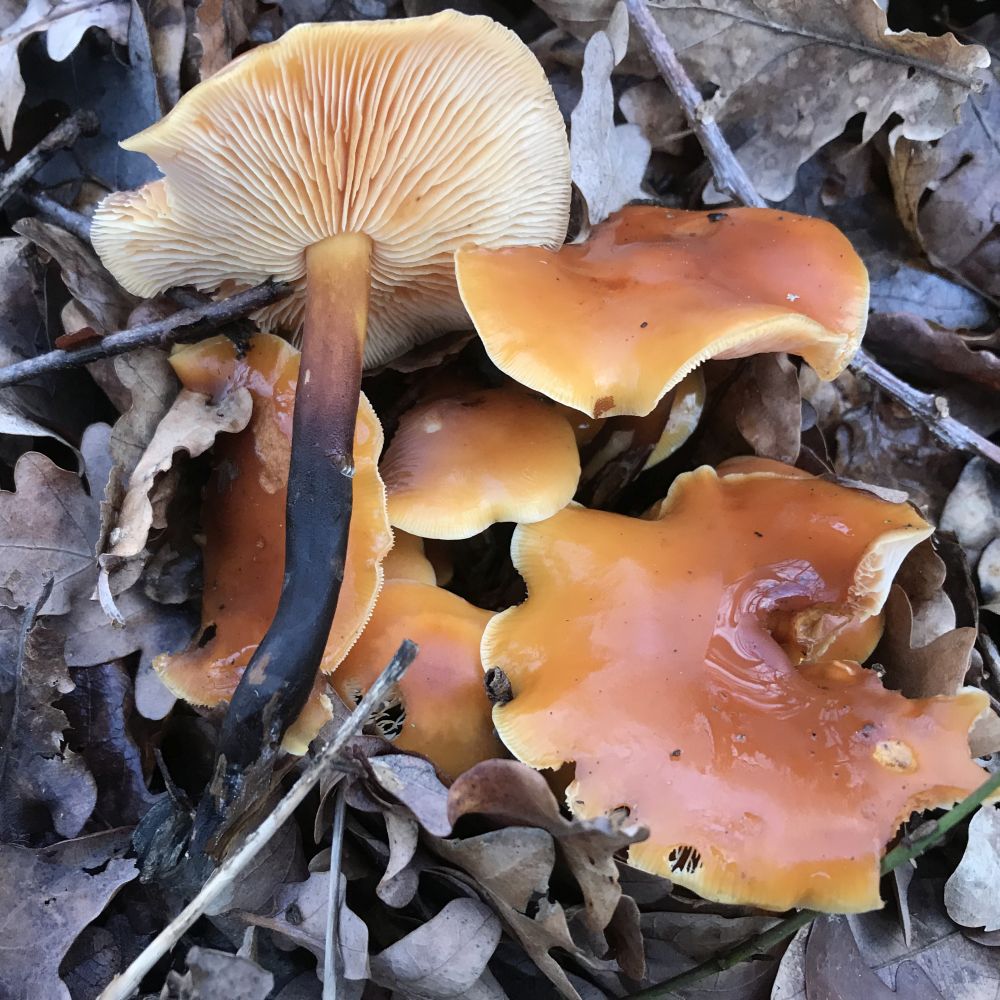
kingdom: Fungi
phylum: Basidiomycota
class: Agaricomycetes
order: Agaricales
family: Physalacriaceae
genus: Flammulina
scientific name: Flammulina velutipes
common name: gul fløjlsfod
